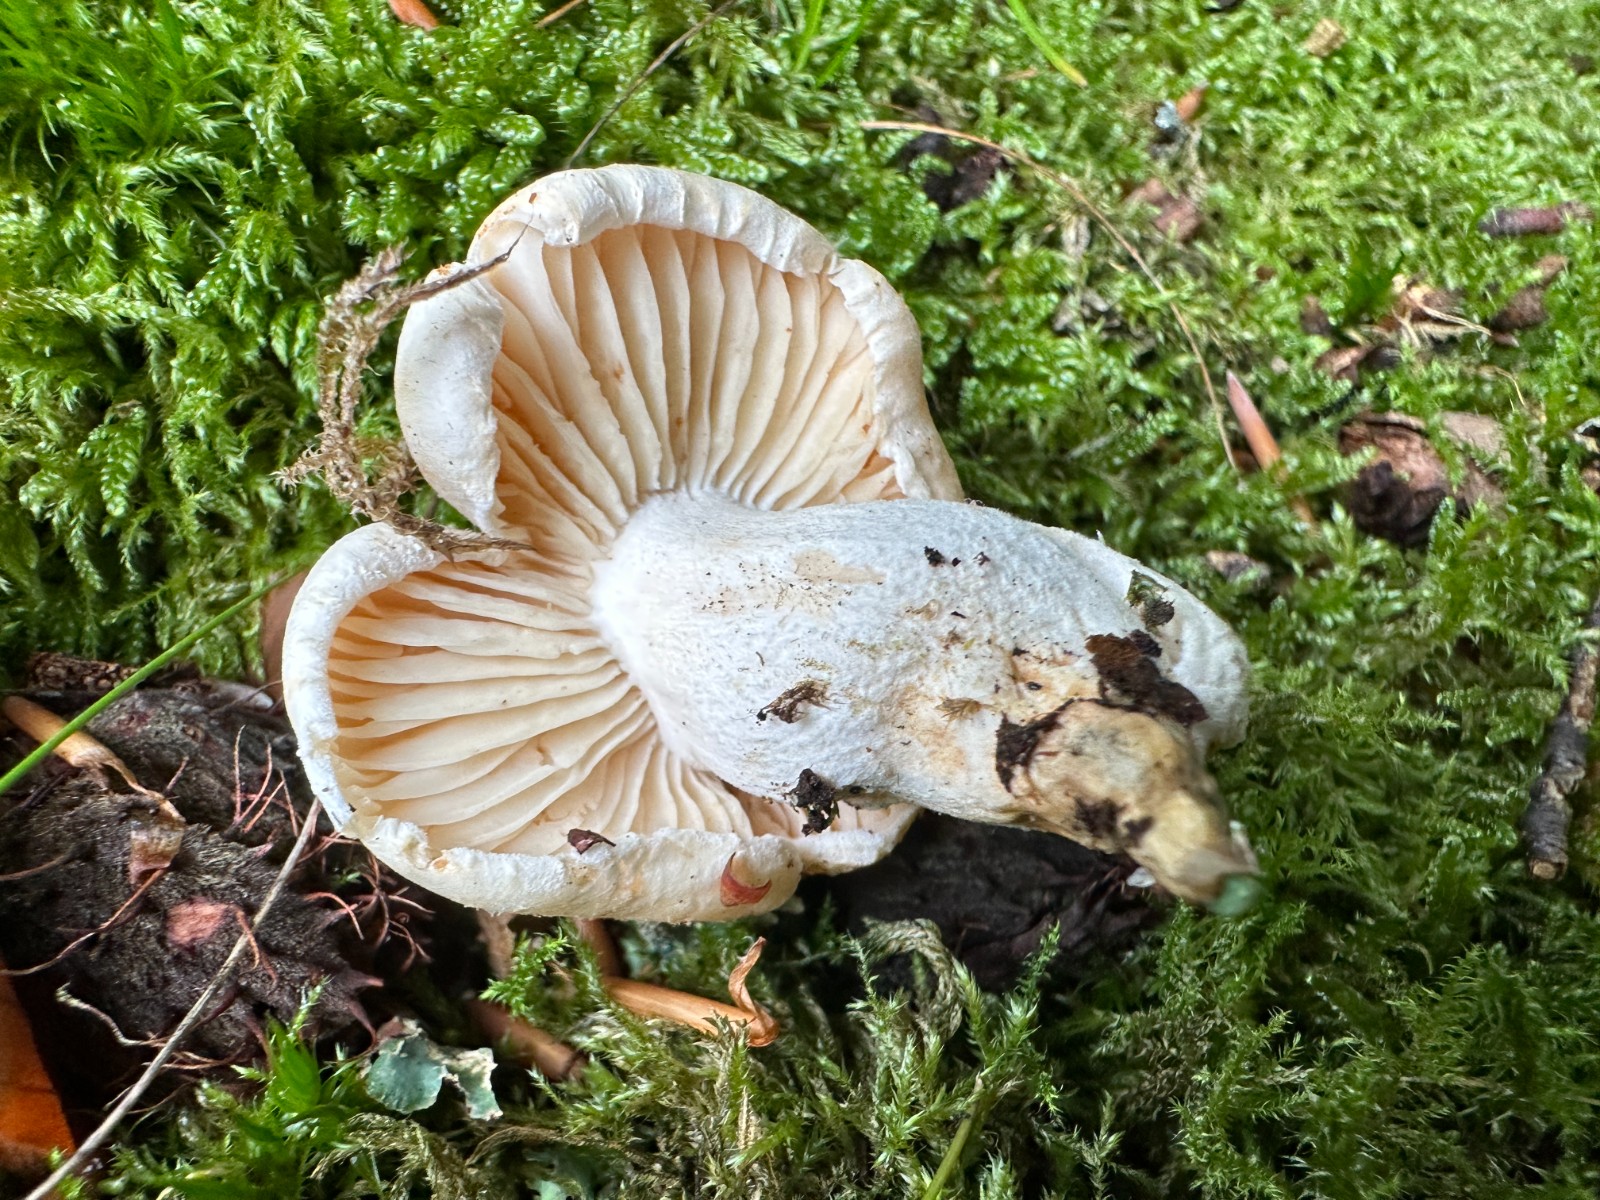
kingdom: Fungi
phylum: Basidiomycota
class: Agaricomycetes
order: Agaricales
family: Hygrophoraceae
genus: Hygrophorus
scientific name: Hygrophorus penarius
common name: spiselig sneglehat
